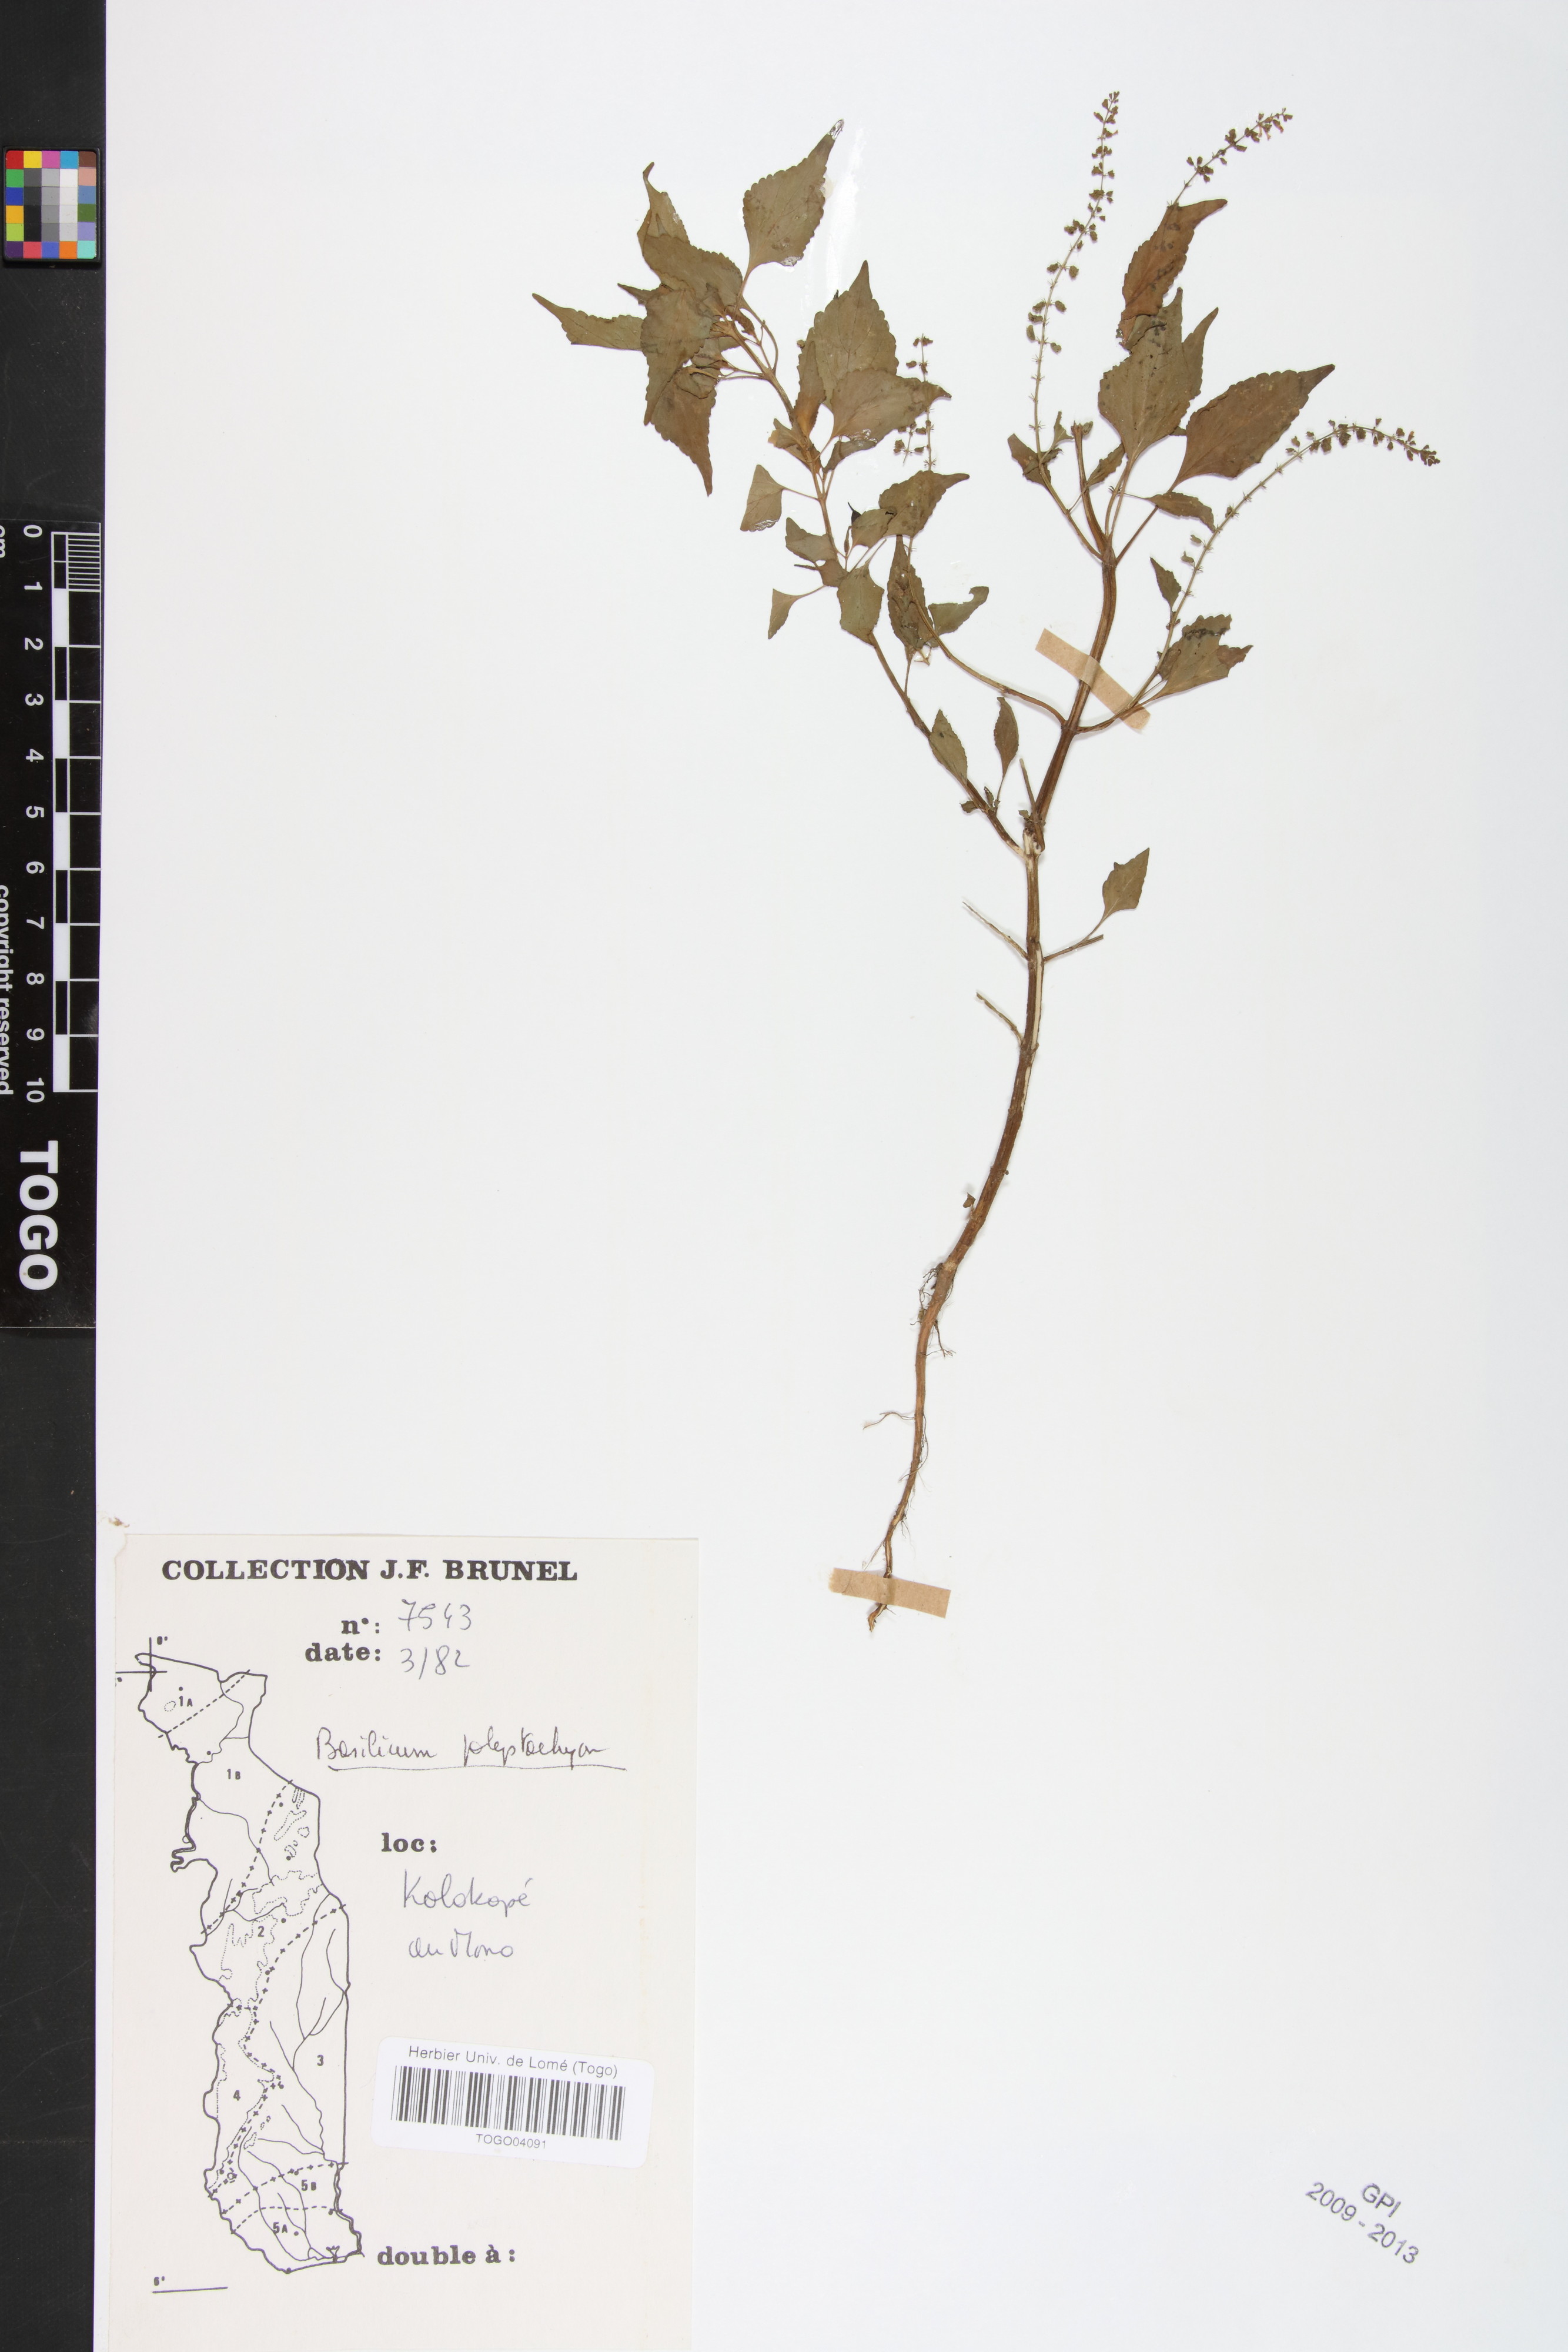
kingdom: Plantae
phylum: Tracheophyta
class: Magnoliopsida
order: Lamiales
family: Lamiaceae
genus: Basilicum
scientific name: Basilicum polystachyon
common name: Musk-basil
